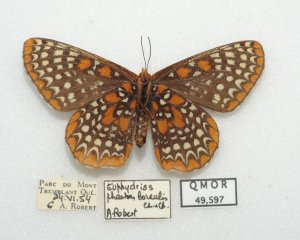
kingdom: Animalia
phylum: Arthropoda
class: Insecta
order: Lepidoptera
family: Nymphalidae
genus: Euphydryas
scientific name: Euphydryas phaeton
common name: Baltimore Checkerspot
